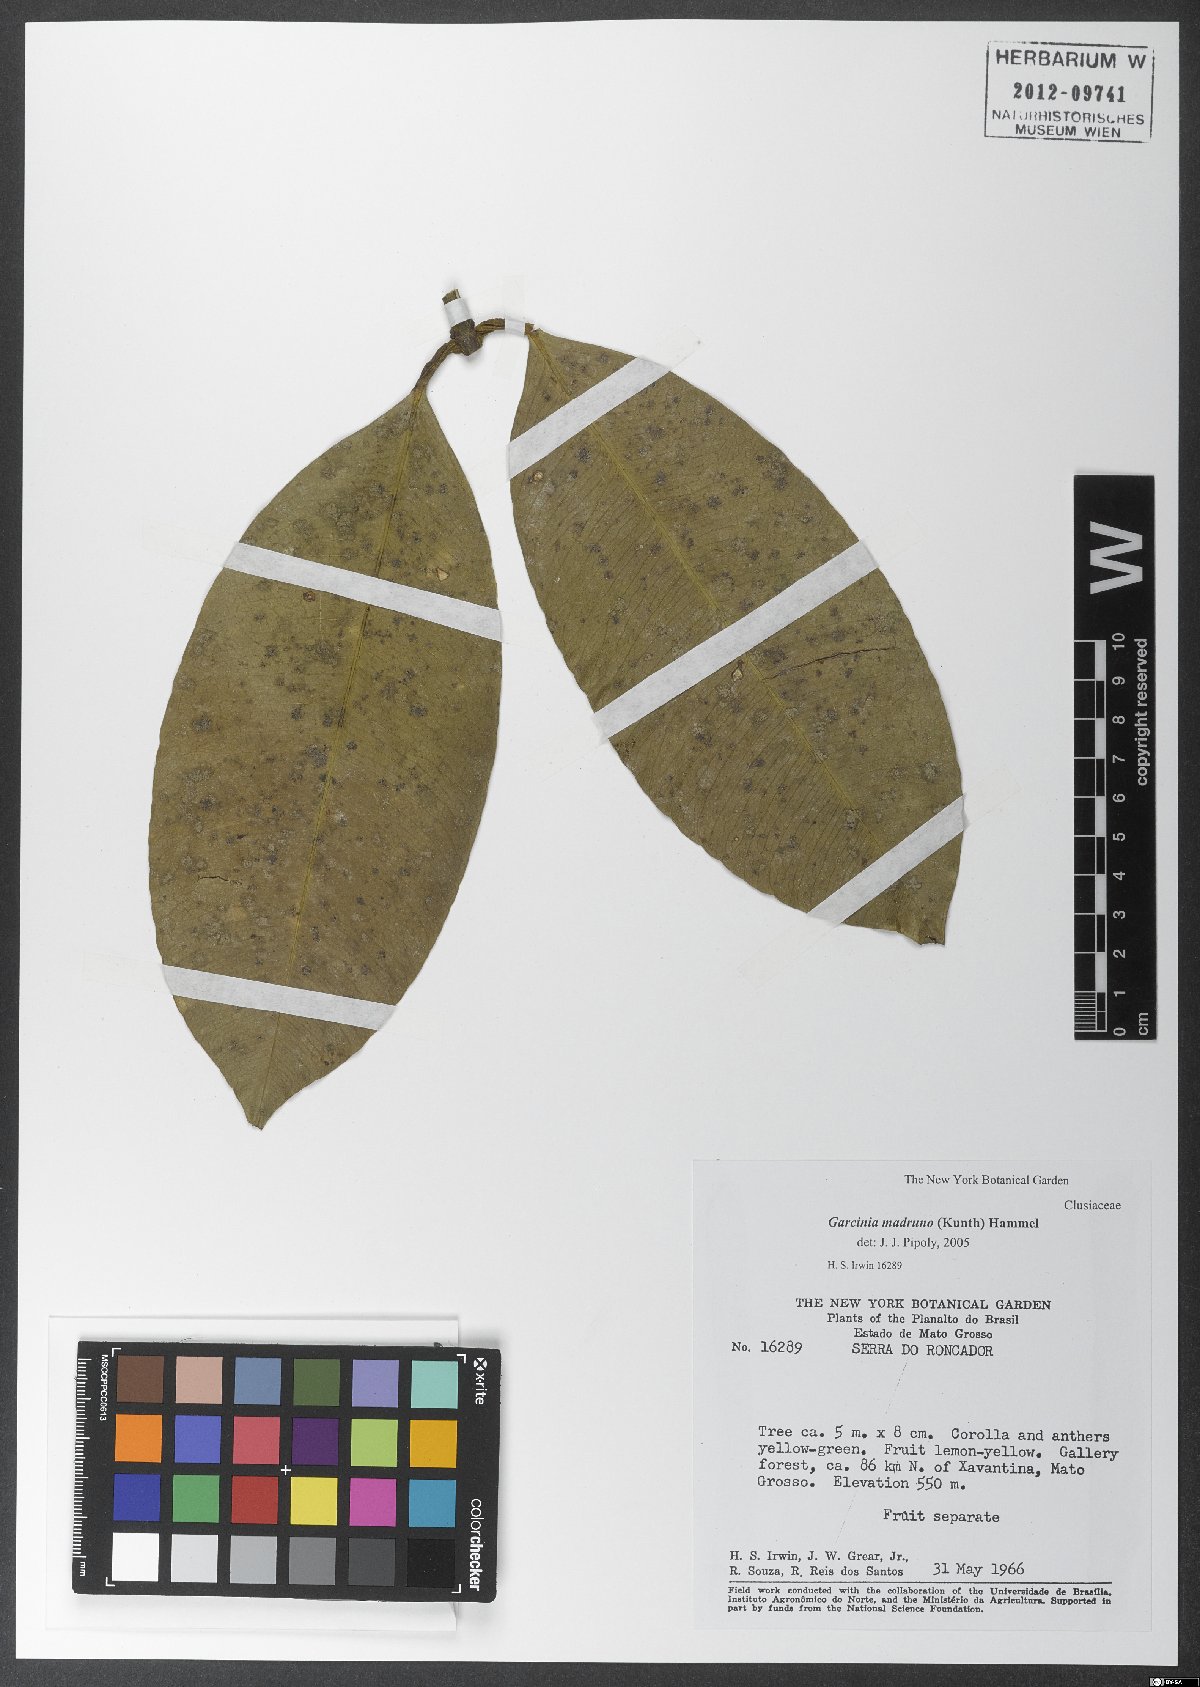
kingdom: Plantae
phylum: Tracheophyta
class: Magnoliopsida
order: Malpighiales
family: Clusiaceae
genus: Garcinia
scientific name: Garcinia madruno
